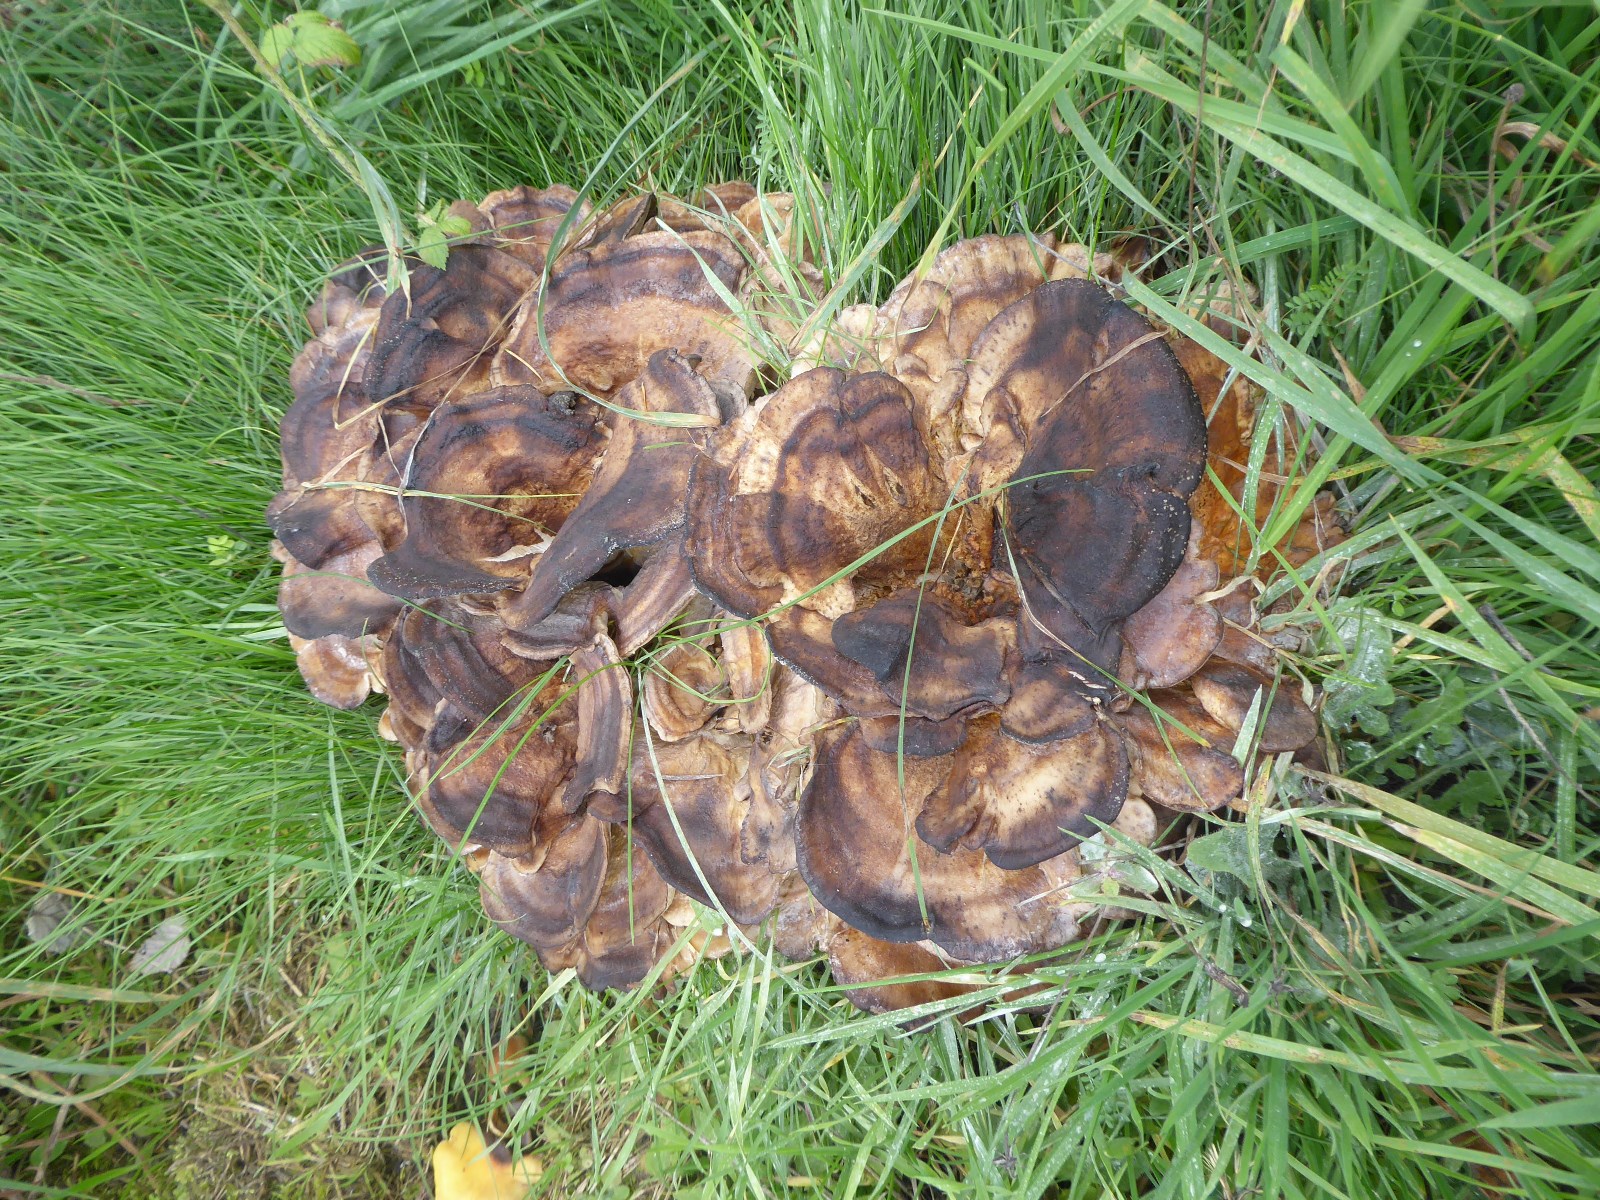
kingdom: Fungi
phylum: Basidiomycota
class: Agaricomycetes
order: Polyporales
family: Meripilaceae
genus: Meripilus
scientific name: Meripilus giganteus
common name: kæmpeporesvamp
